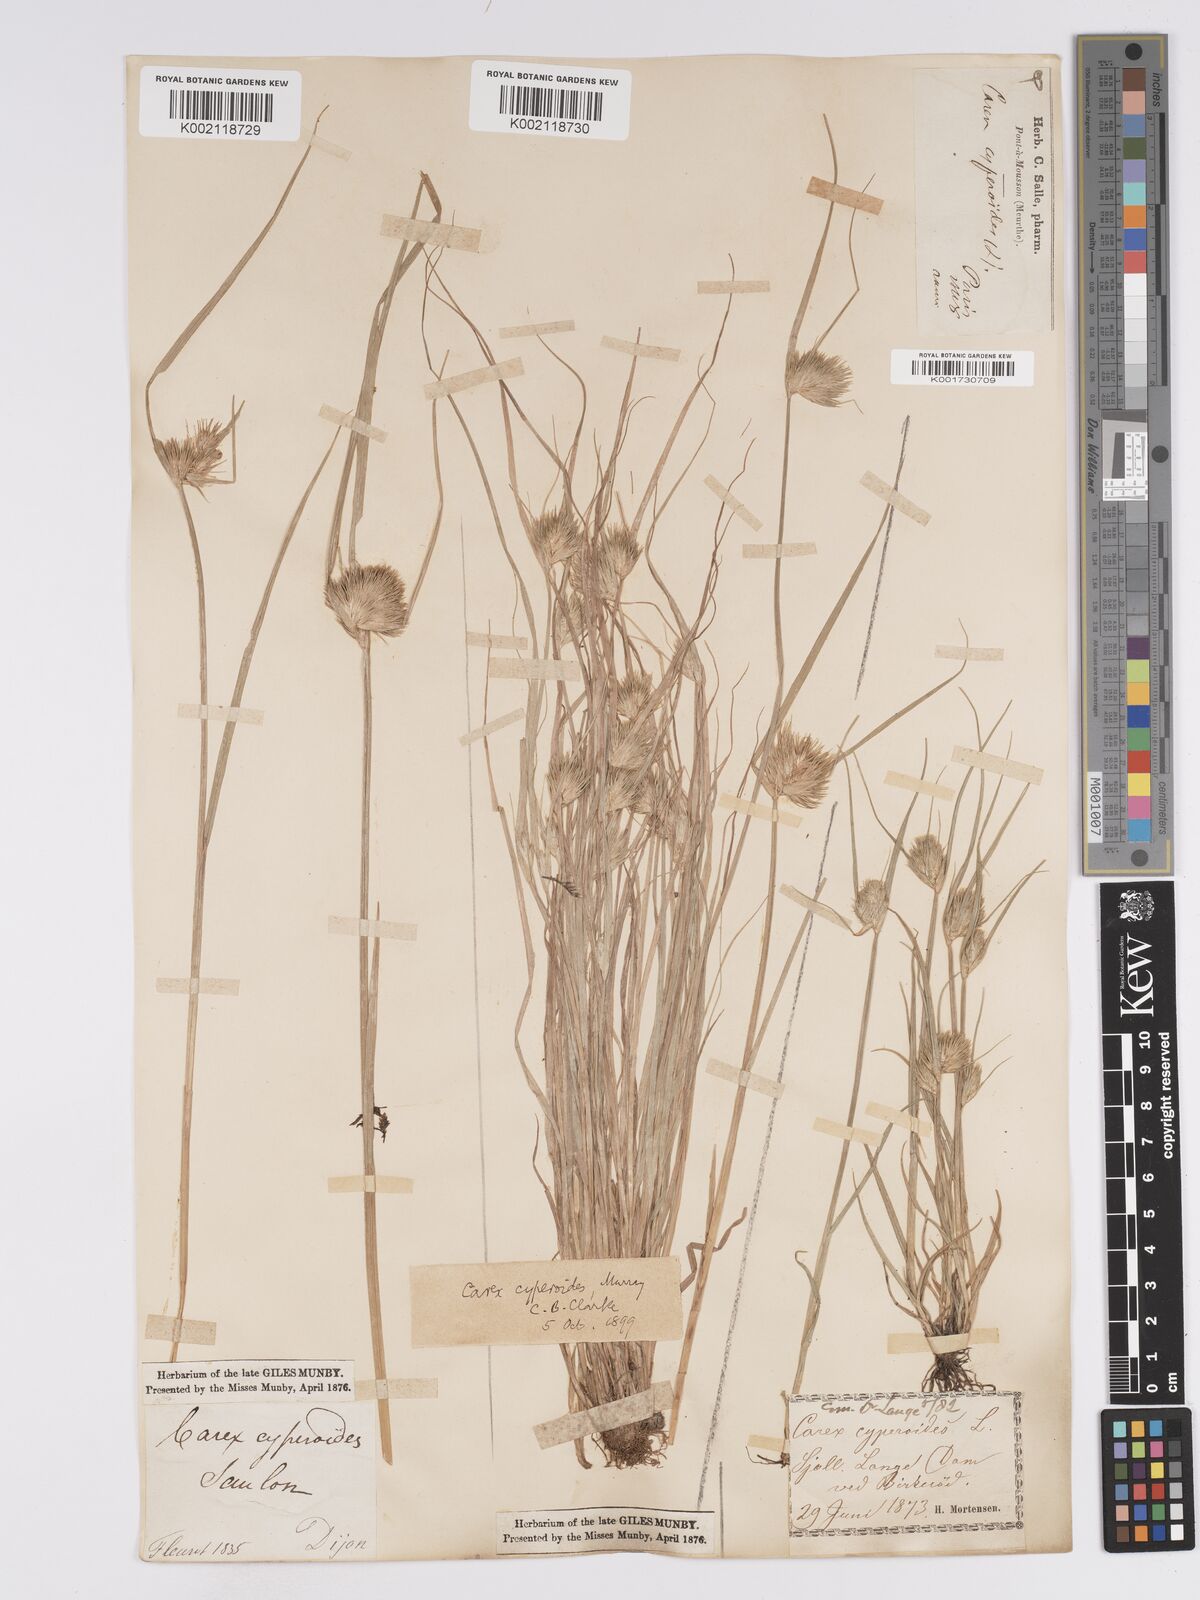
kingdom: Plantae
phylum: Tracheophyta
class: Liliopsida
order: Poales
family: Cyperaceae
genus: Carex
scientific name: Carex bohemica
